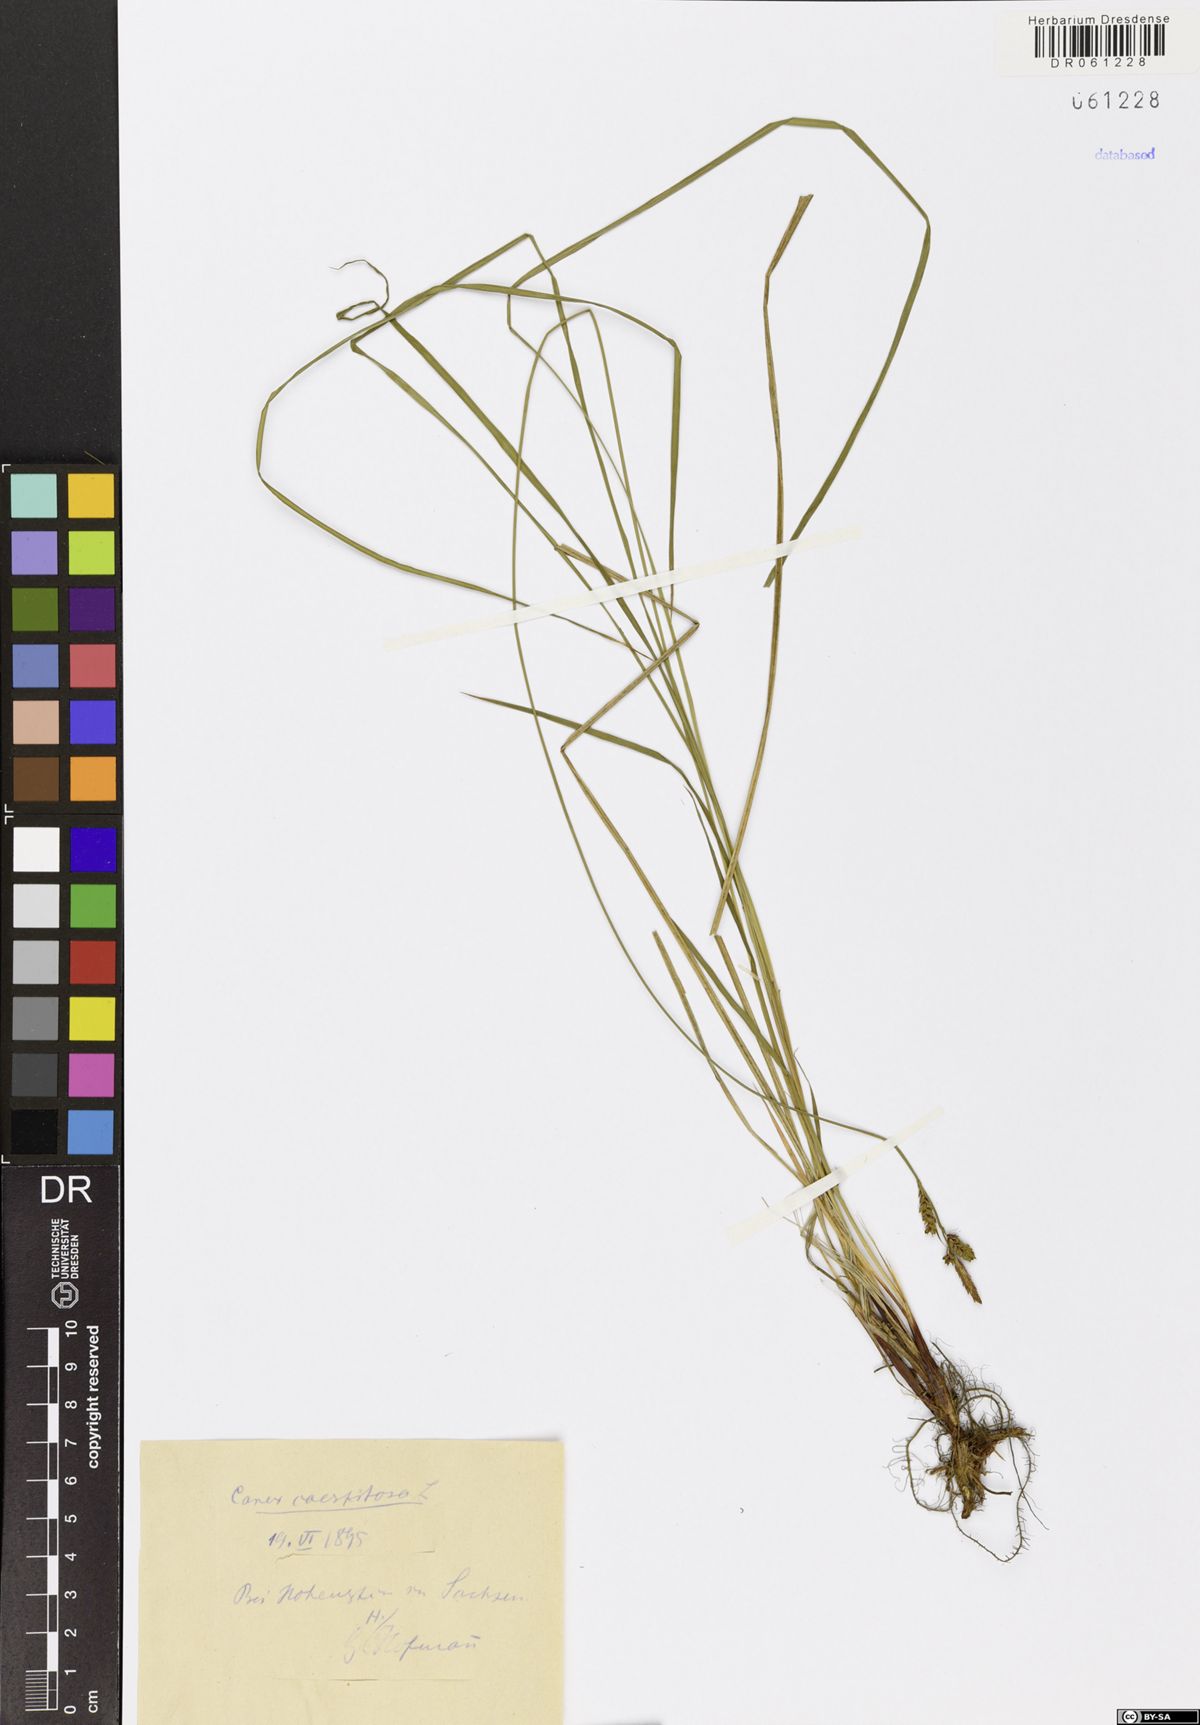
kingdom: Plantae
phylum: Tracheophyta
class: Liliopsida
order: Poales
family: Cyperaceae
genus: Carex
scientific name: Carex cespitosa
